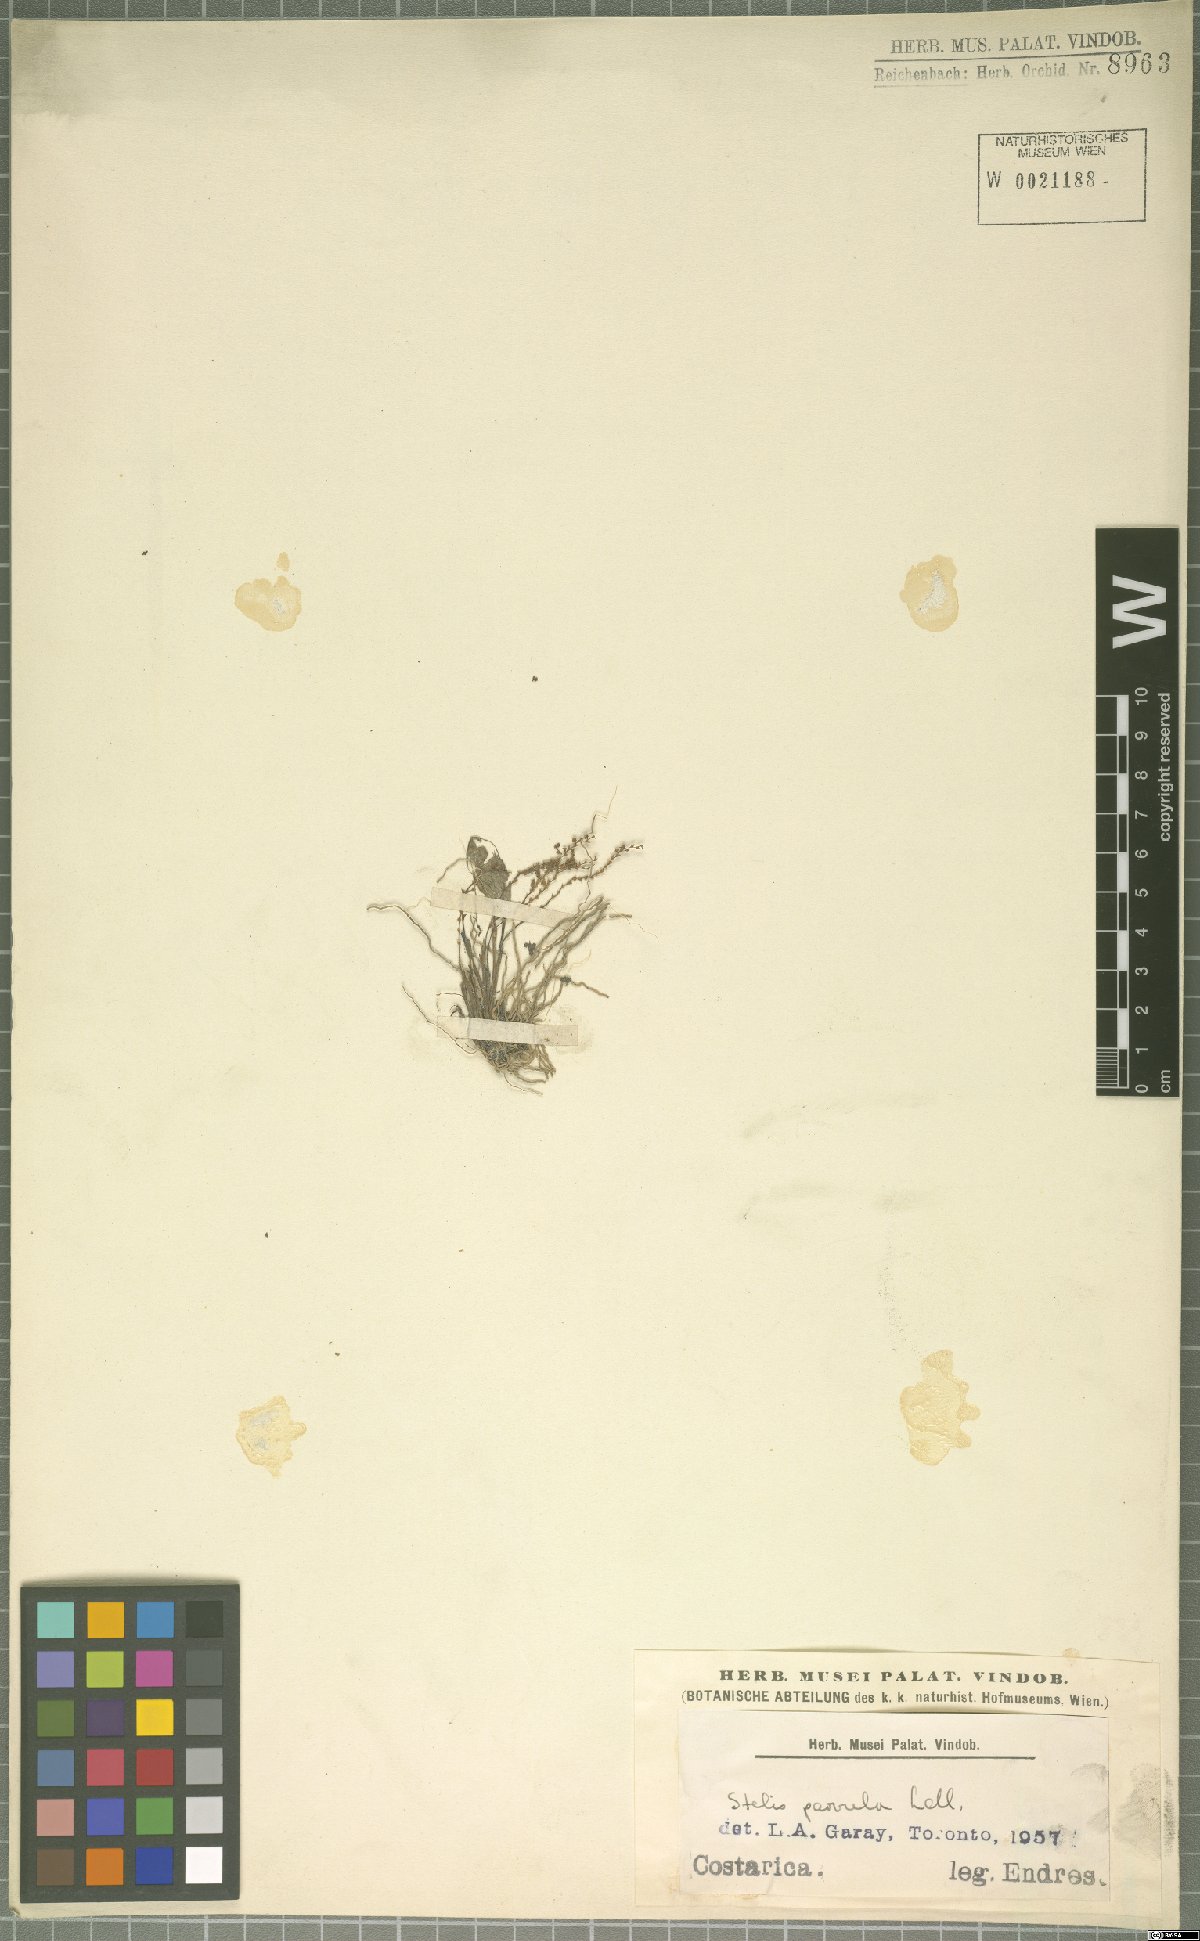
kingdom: Plantae
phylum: Tracheophyta
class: Liliopsida
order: Asparagales
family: Orchidaceae
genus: Stelis
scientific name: Stelis parvula
